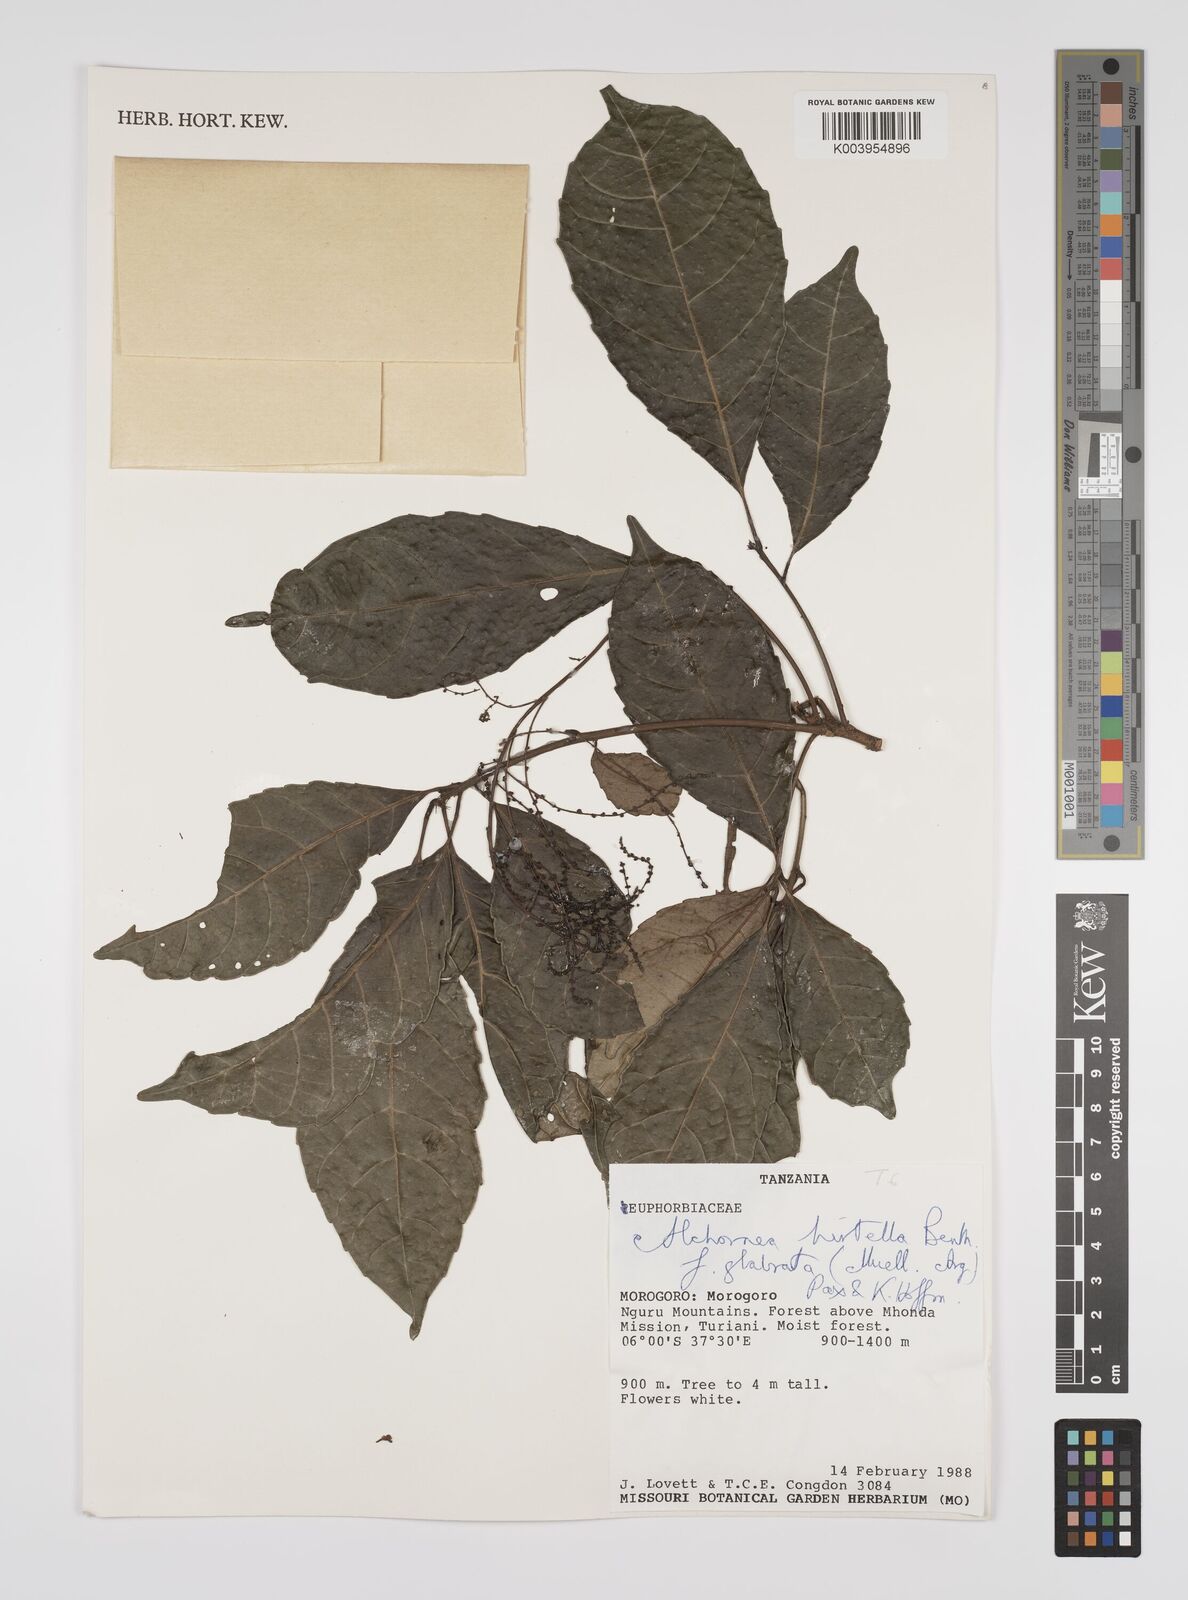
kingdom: Plantae
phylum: Tracheophyta
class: Magnoliopsida
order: Malpighiales
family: Euphorbiaceae
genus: Alchornea
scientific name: Alchornea hirtella
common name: Forest bead-string
